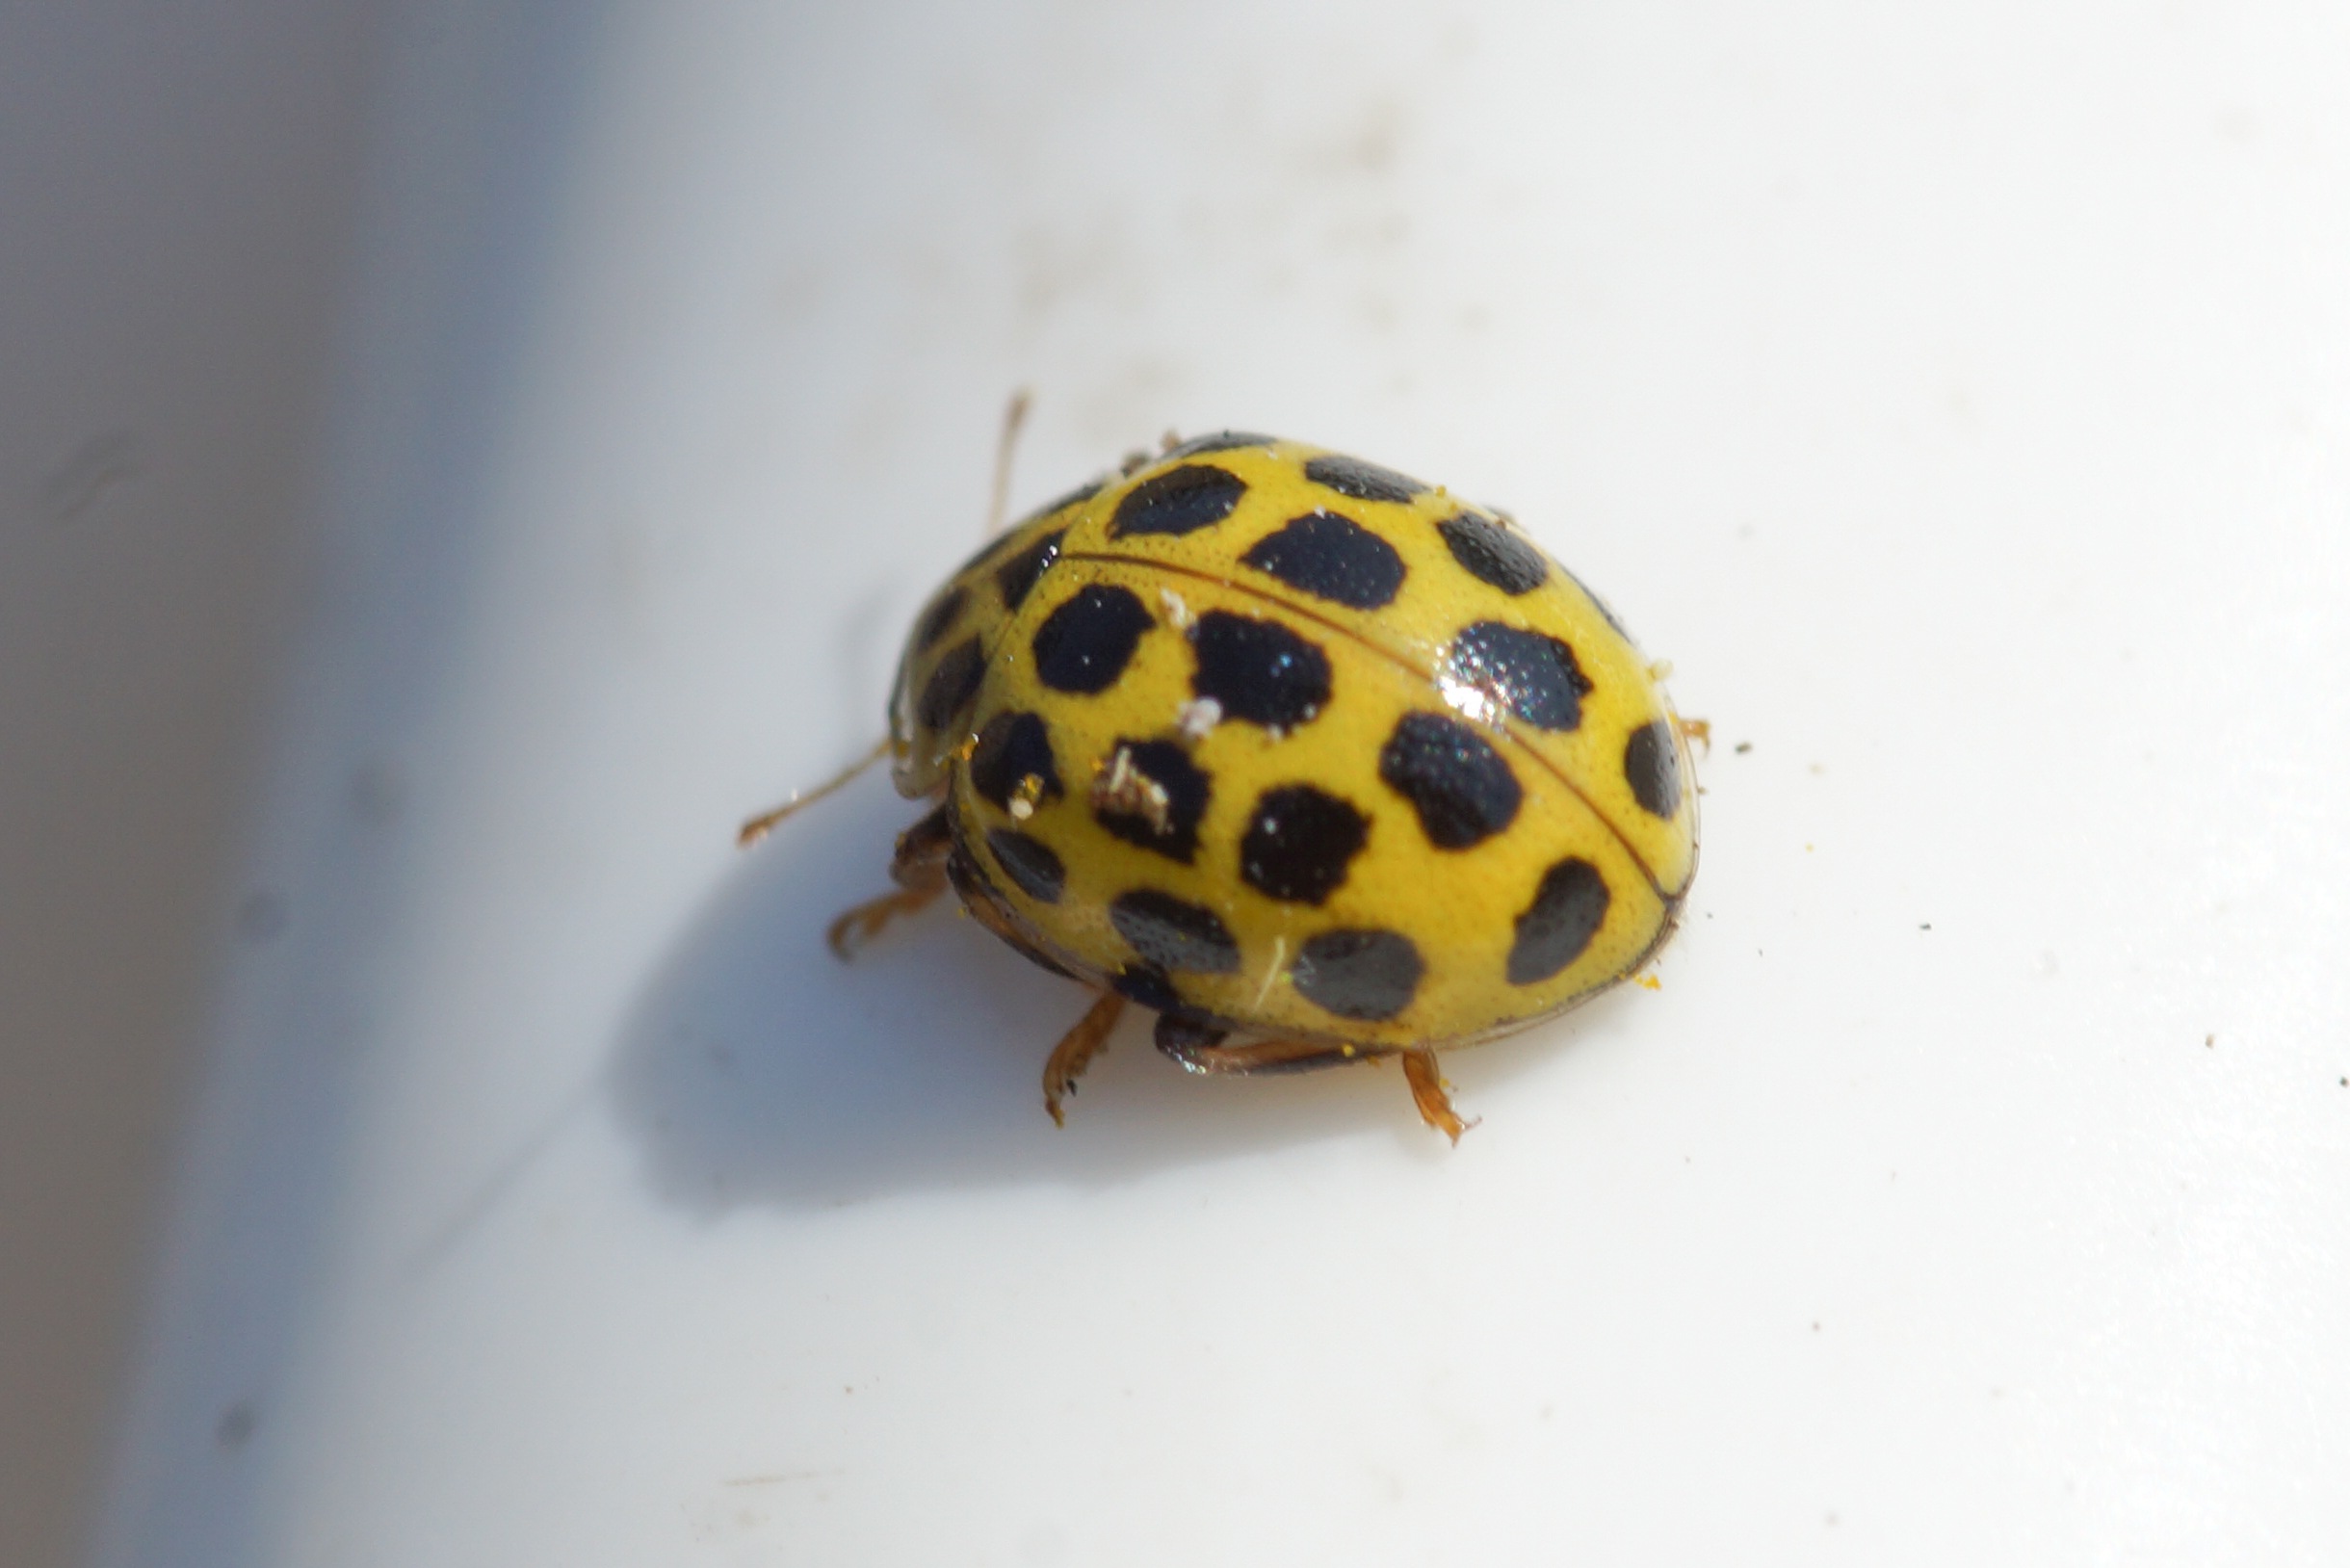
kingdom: Animalia
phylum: Arthropoda
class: Insecta
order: Coleoptera
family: Coccinellidae
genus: Psyllobora
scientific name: Psyllobora vigintiduopunctata
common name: Toogtyveplettet mariehøne
